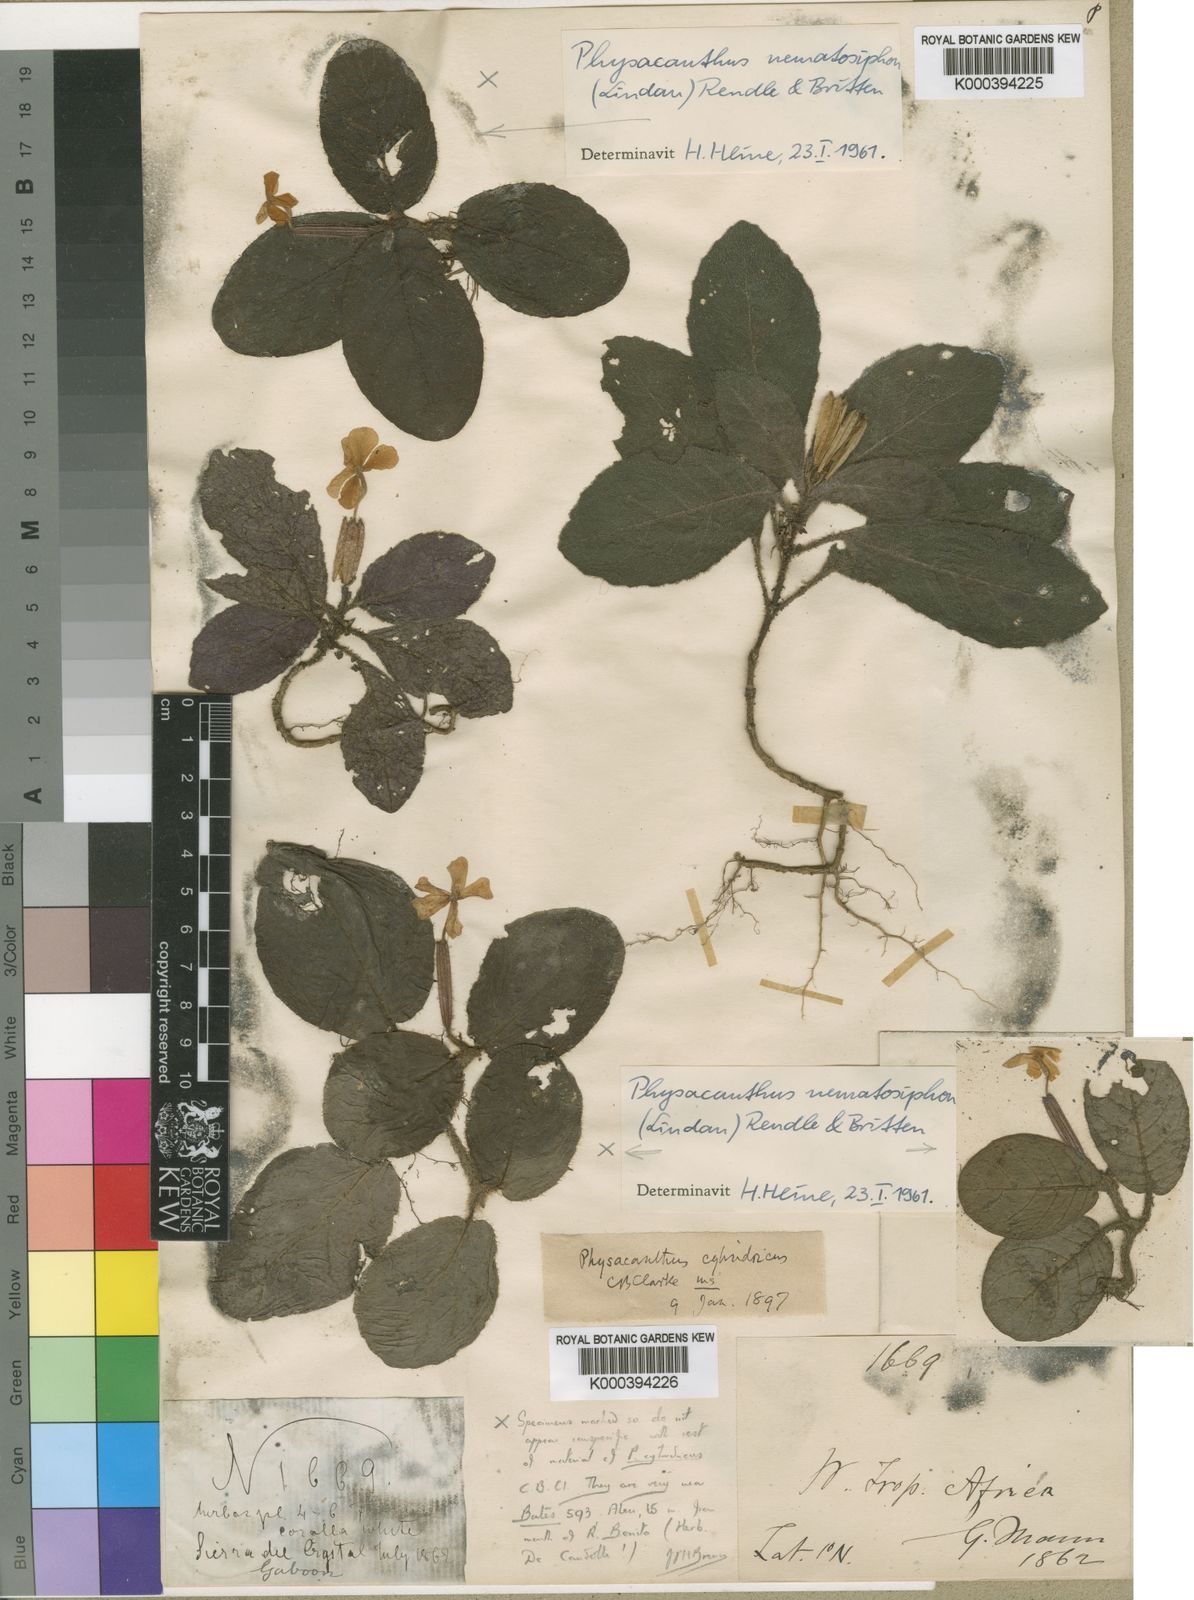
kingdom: Plantae
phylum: Tracheophyta
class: Magnoliopsida
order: Lamiales
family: Acanthaceae
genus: Physacanthus
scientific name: Physacanthus batanganus
